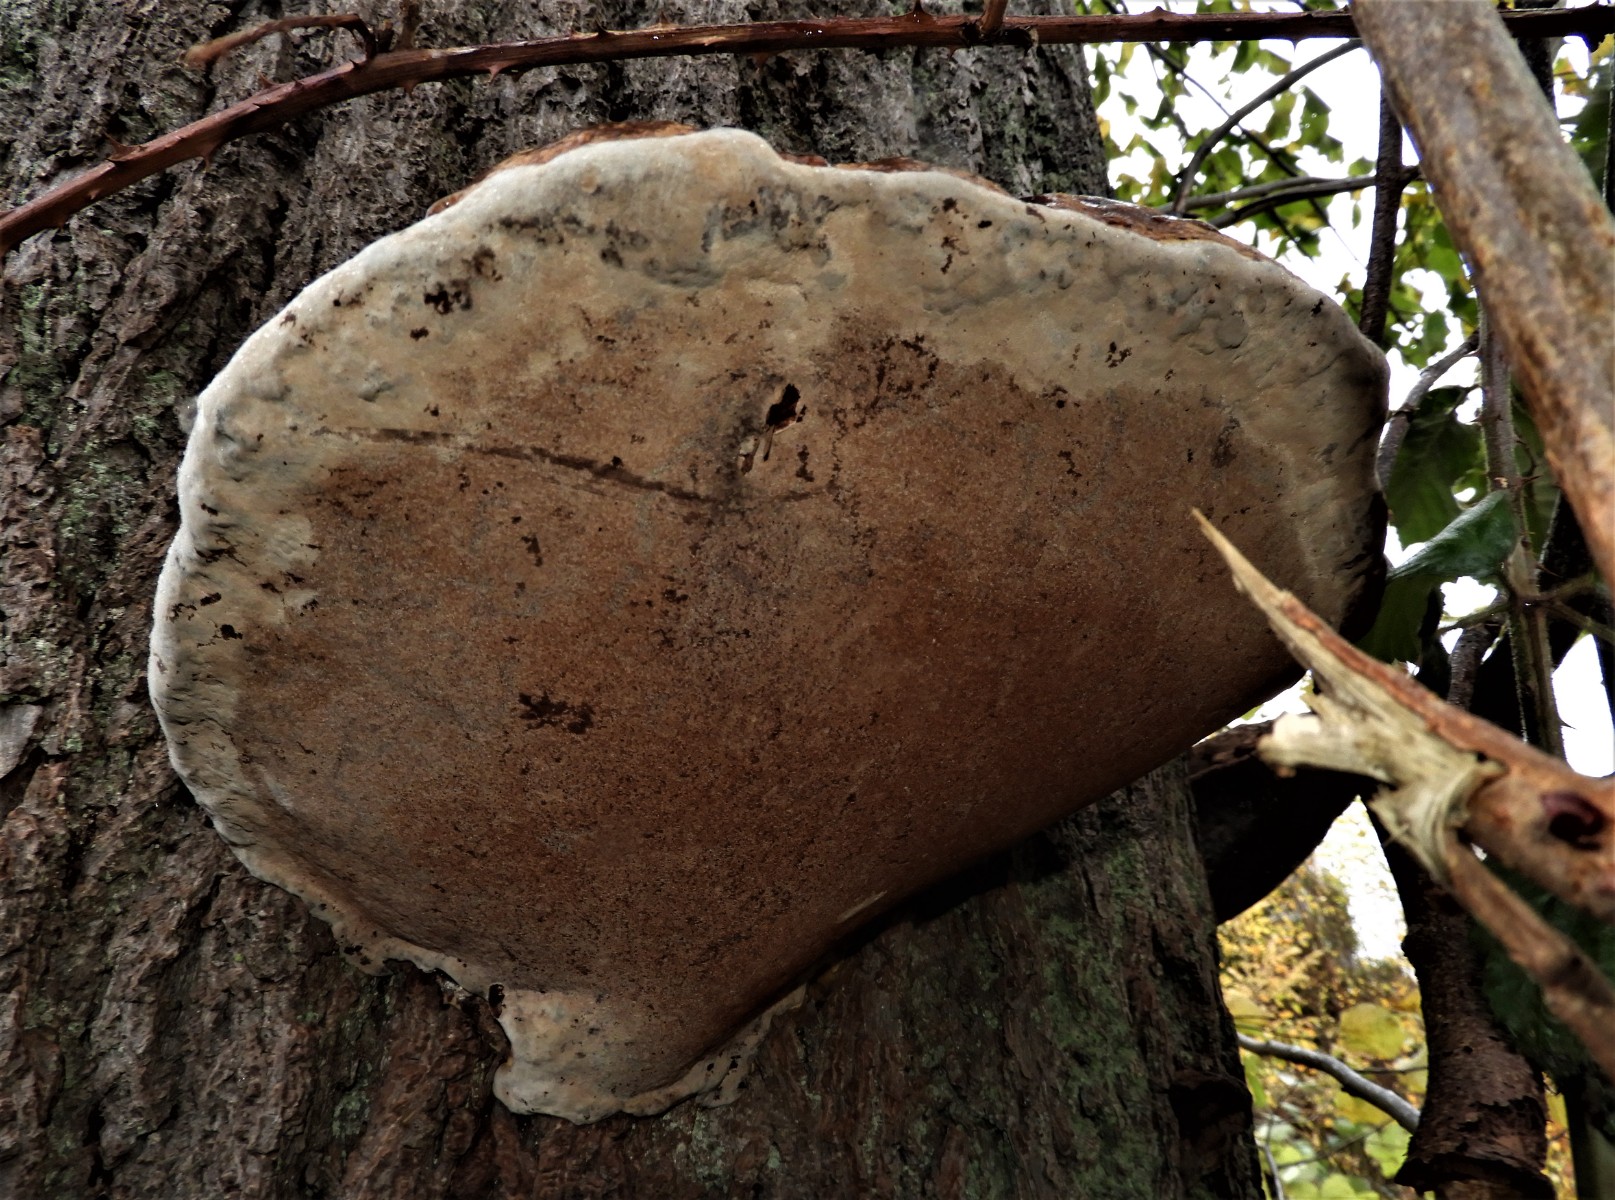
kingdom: Fungi
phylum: Basidiomycota
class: Agaricomycetes
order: Polyporales
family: Polyporaceae
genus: Ganoderma
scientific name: Ganoderma adspersum
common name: grov lakporesvamp
